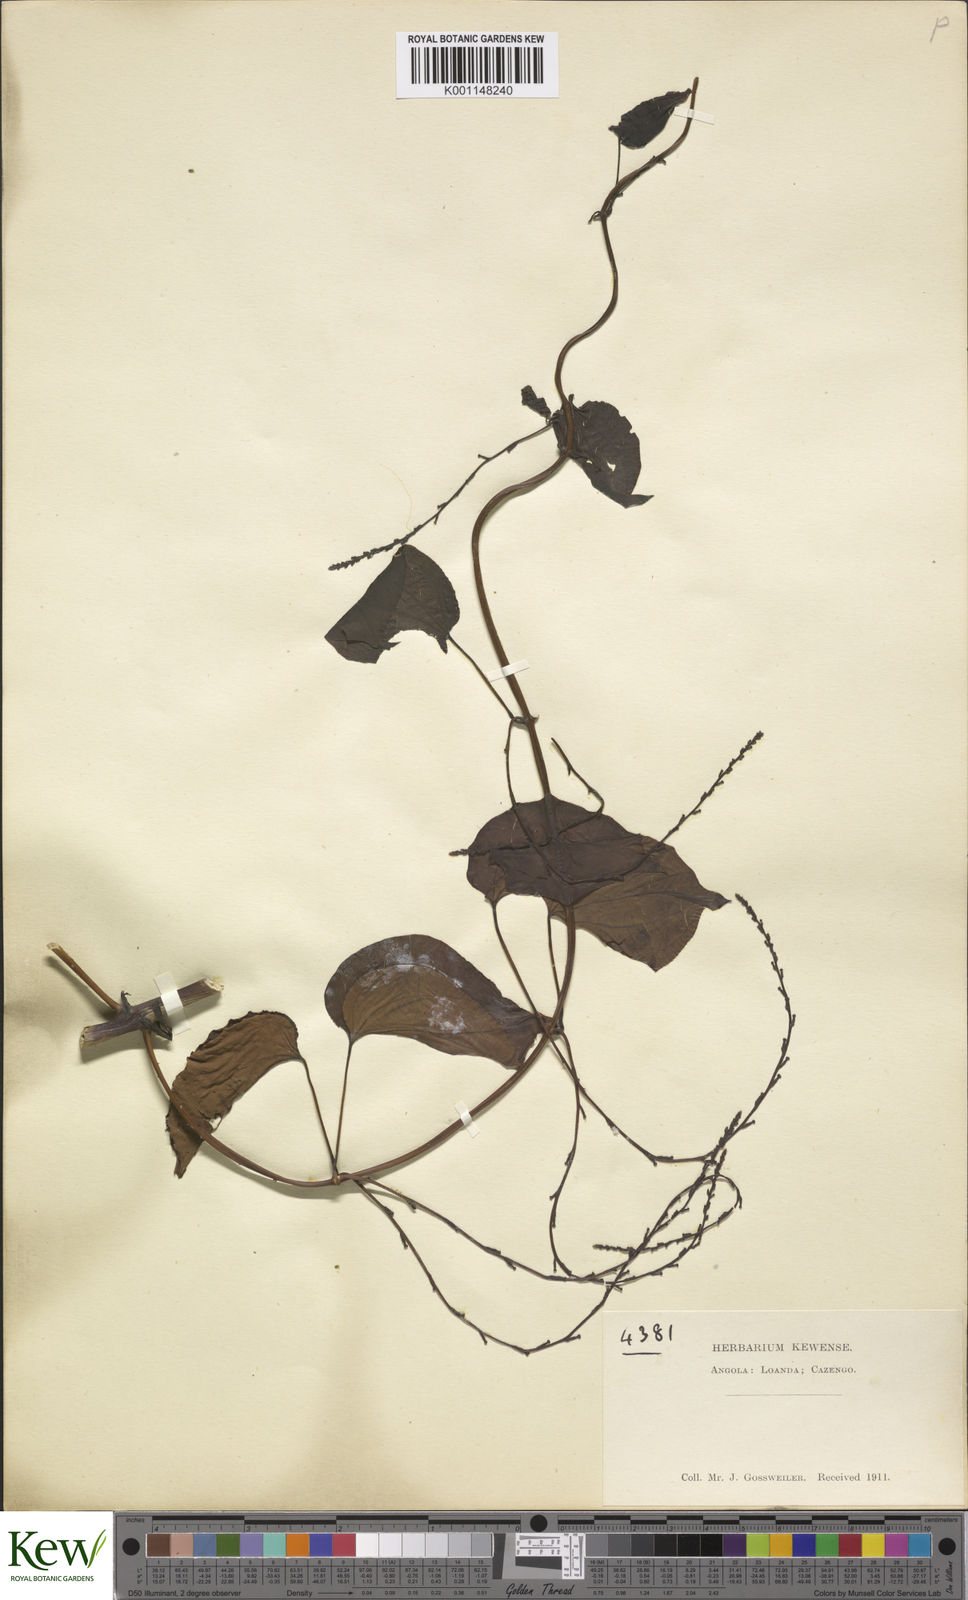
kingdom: Plantae
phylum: Tracheophyta
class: Liliopsida
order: Dioscoreales
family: Dioscoreaceae
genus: Dioscorea
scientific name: Dioscorea cayenensis
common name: Attoto yam
